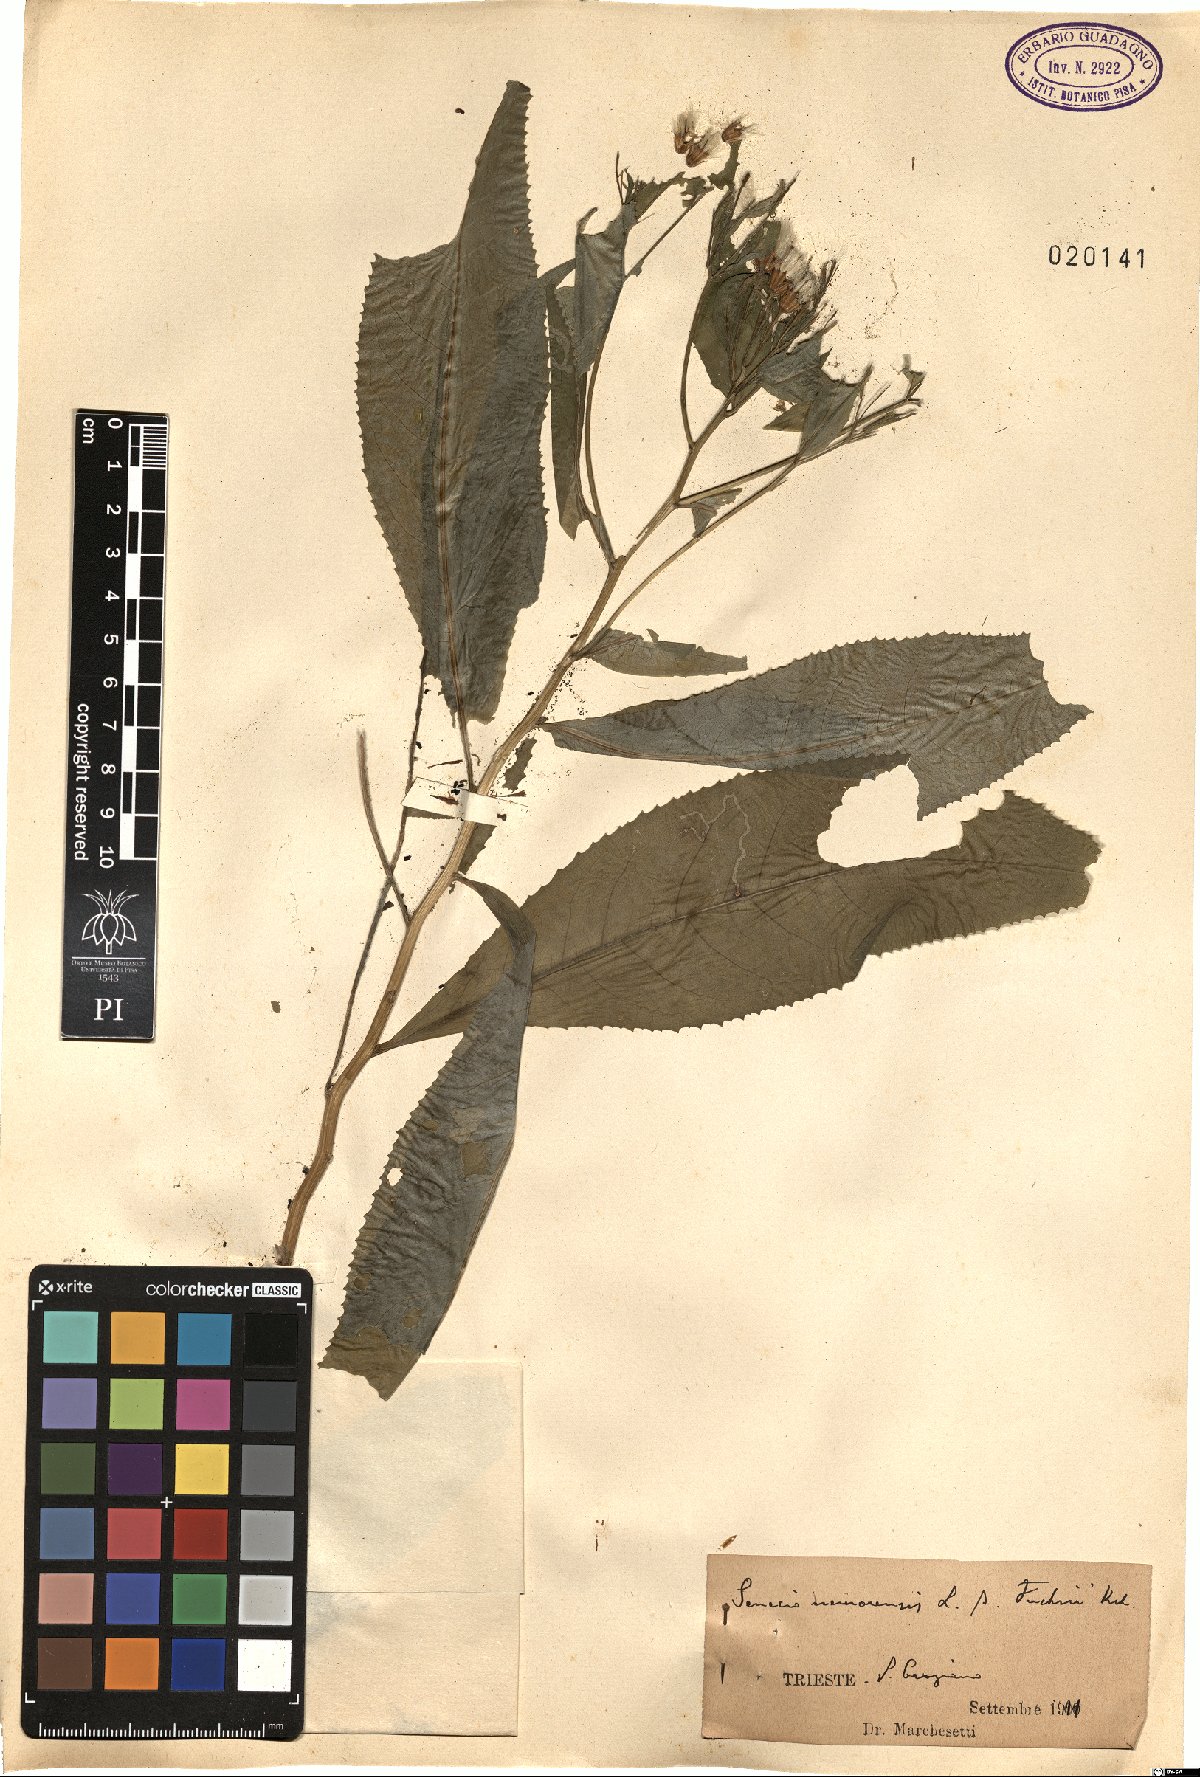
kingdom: Plantae
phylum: Tracheophyta
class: Magnoliopsida
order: Asterales
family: Asteraceae
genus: Senecio
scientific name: Senecio ovatus
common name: Wood ragwort
